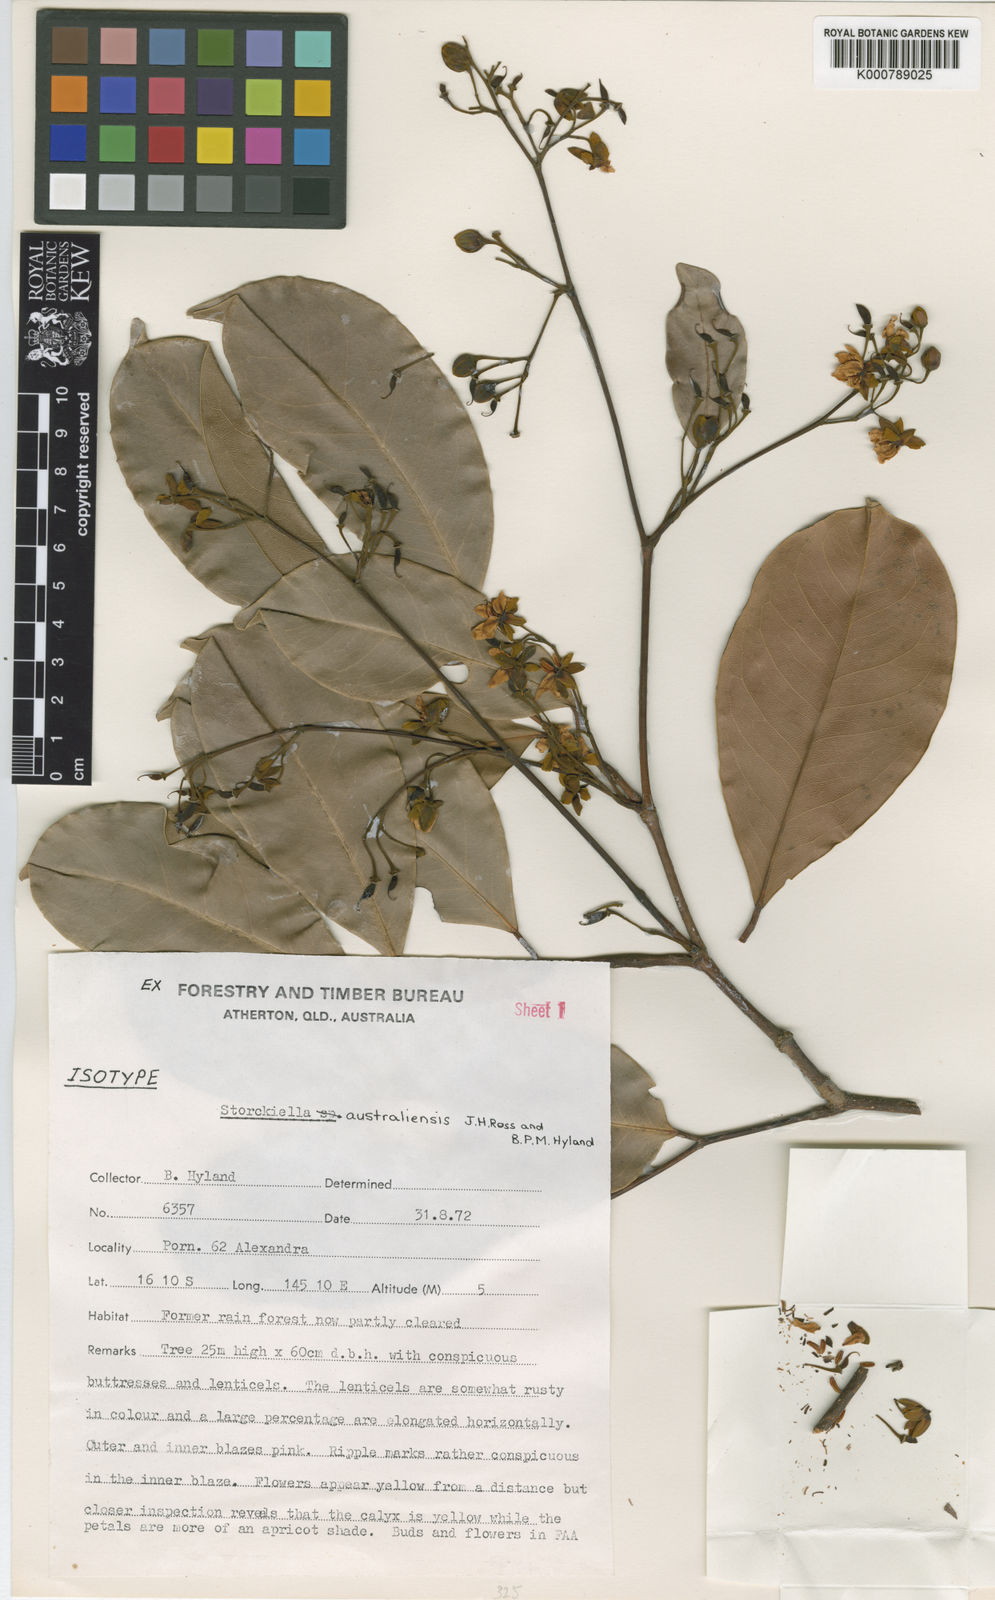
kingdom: Plantae
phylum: Tracheophyta
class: Magnoliopsida
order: Fabales
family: Fabaceae
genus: Storckiella
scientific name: Storckiella australiensis
